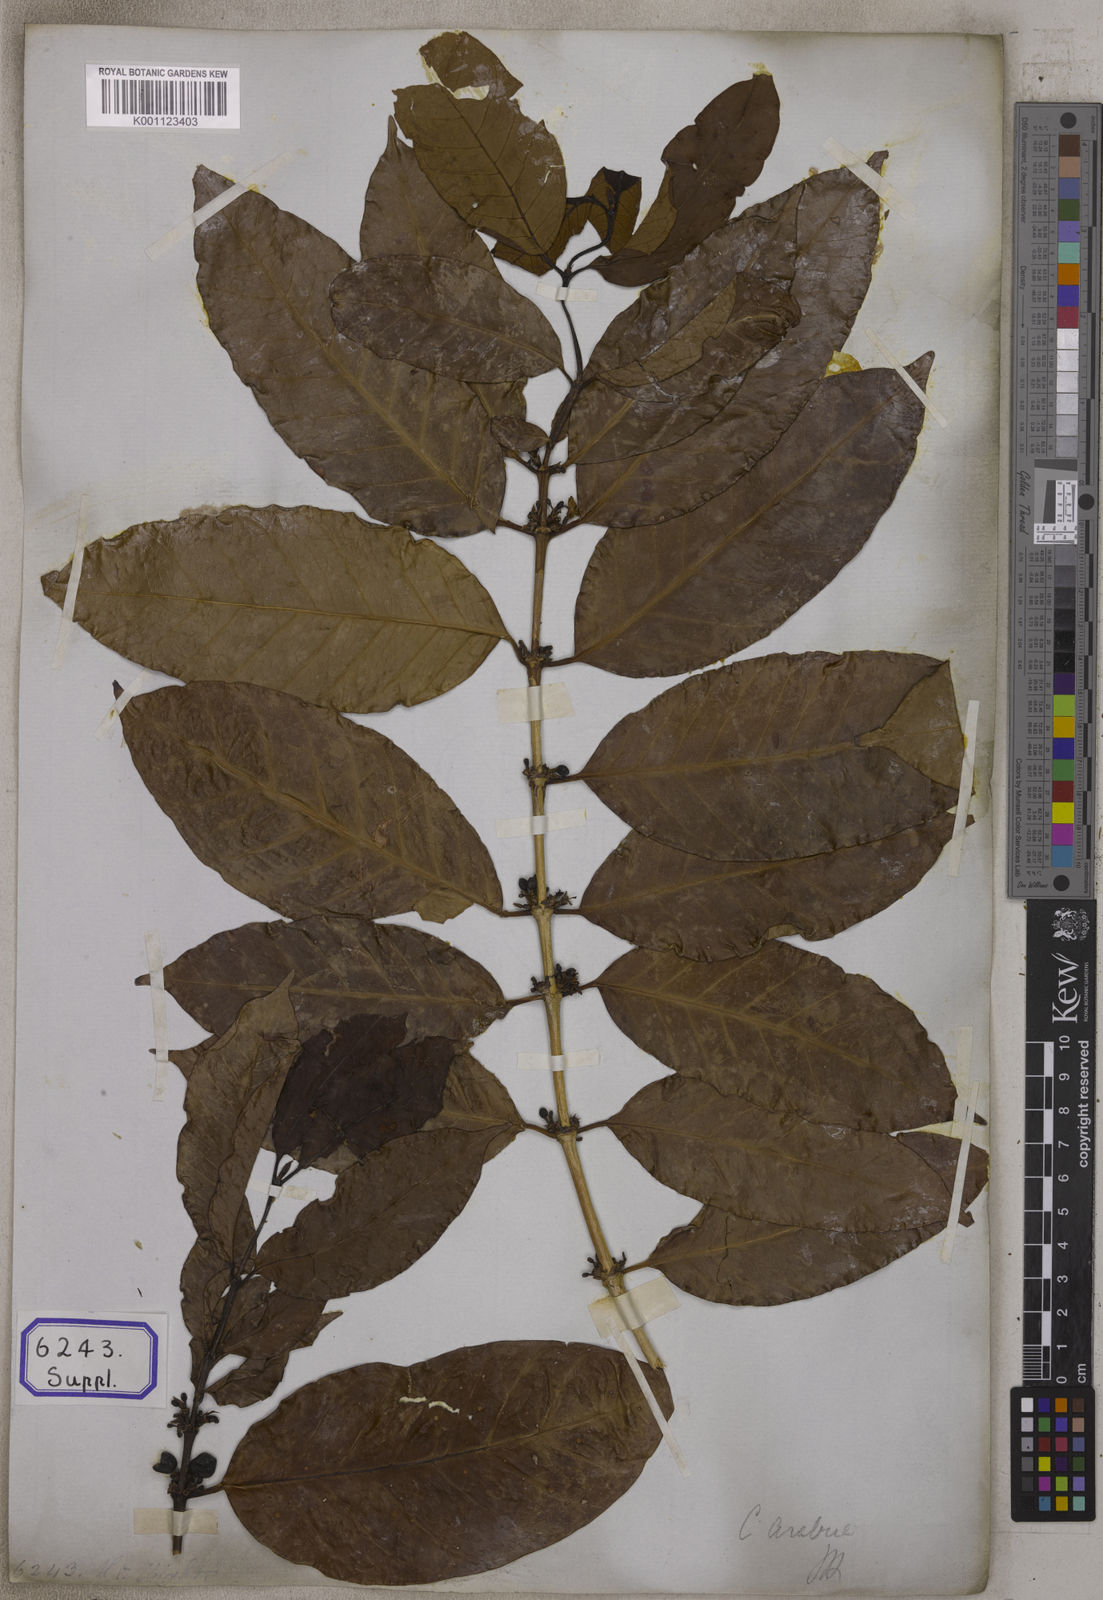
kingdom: Plantae
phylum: Tracheophyta
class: Magnoliopsida
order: Gentianales
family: Rubiaceae
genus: Coffea
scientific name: Coffea arabica
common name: Coffee
